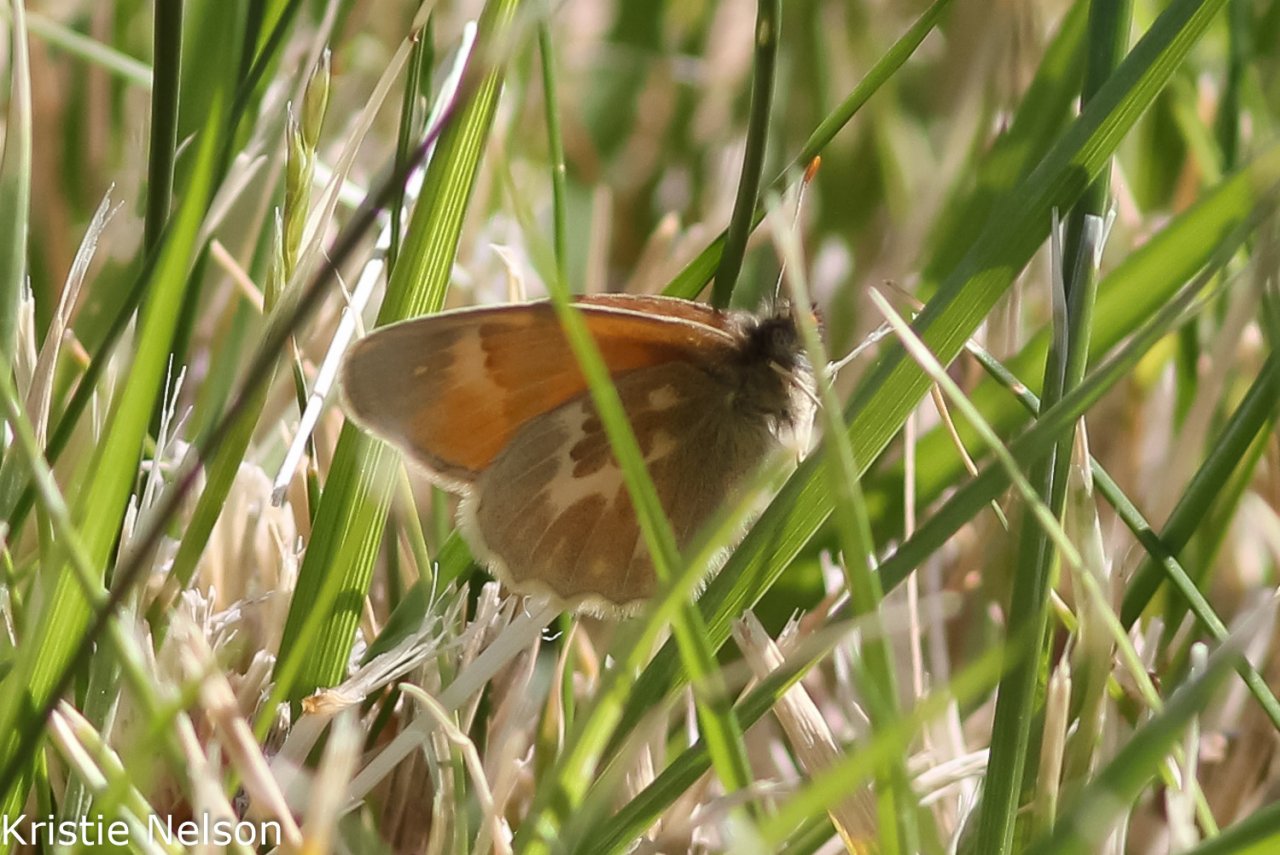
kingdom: Animalia
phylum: Arthropoda
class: Insecta
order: Lepidoptera
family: Nymphalidae
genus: Coenonympha
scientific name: Coenonympha tullia
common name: Large Heath
